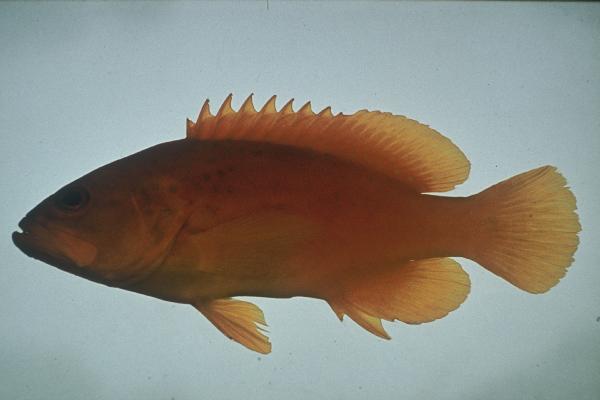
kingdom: Animalia
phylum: Chordata
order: Perciformes
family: Serranidae
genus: Cephalopholis
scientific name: Cephalopholis miniata
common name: Coral hind
